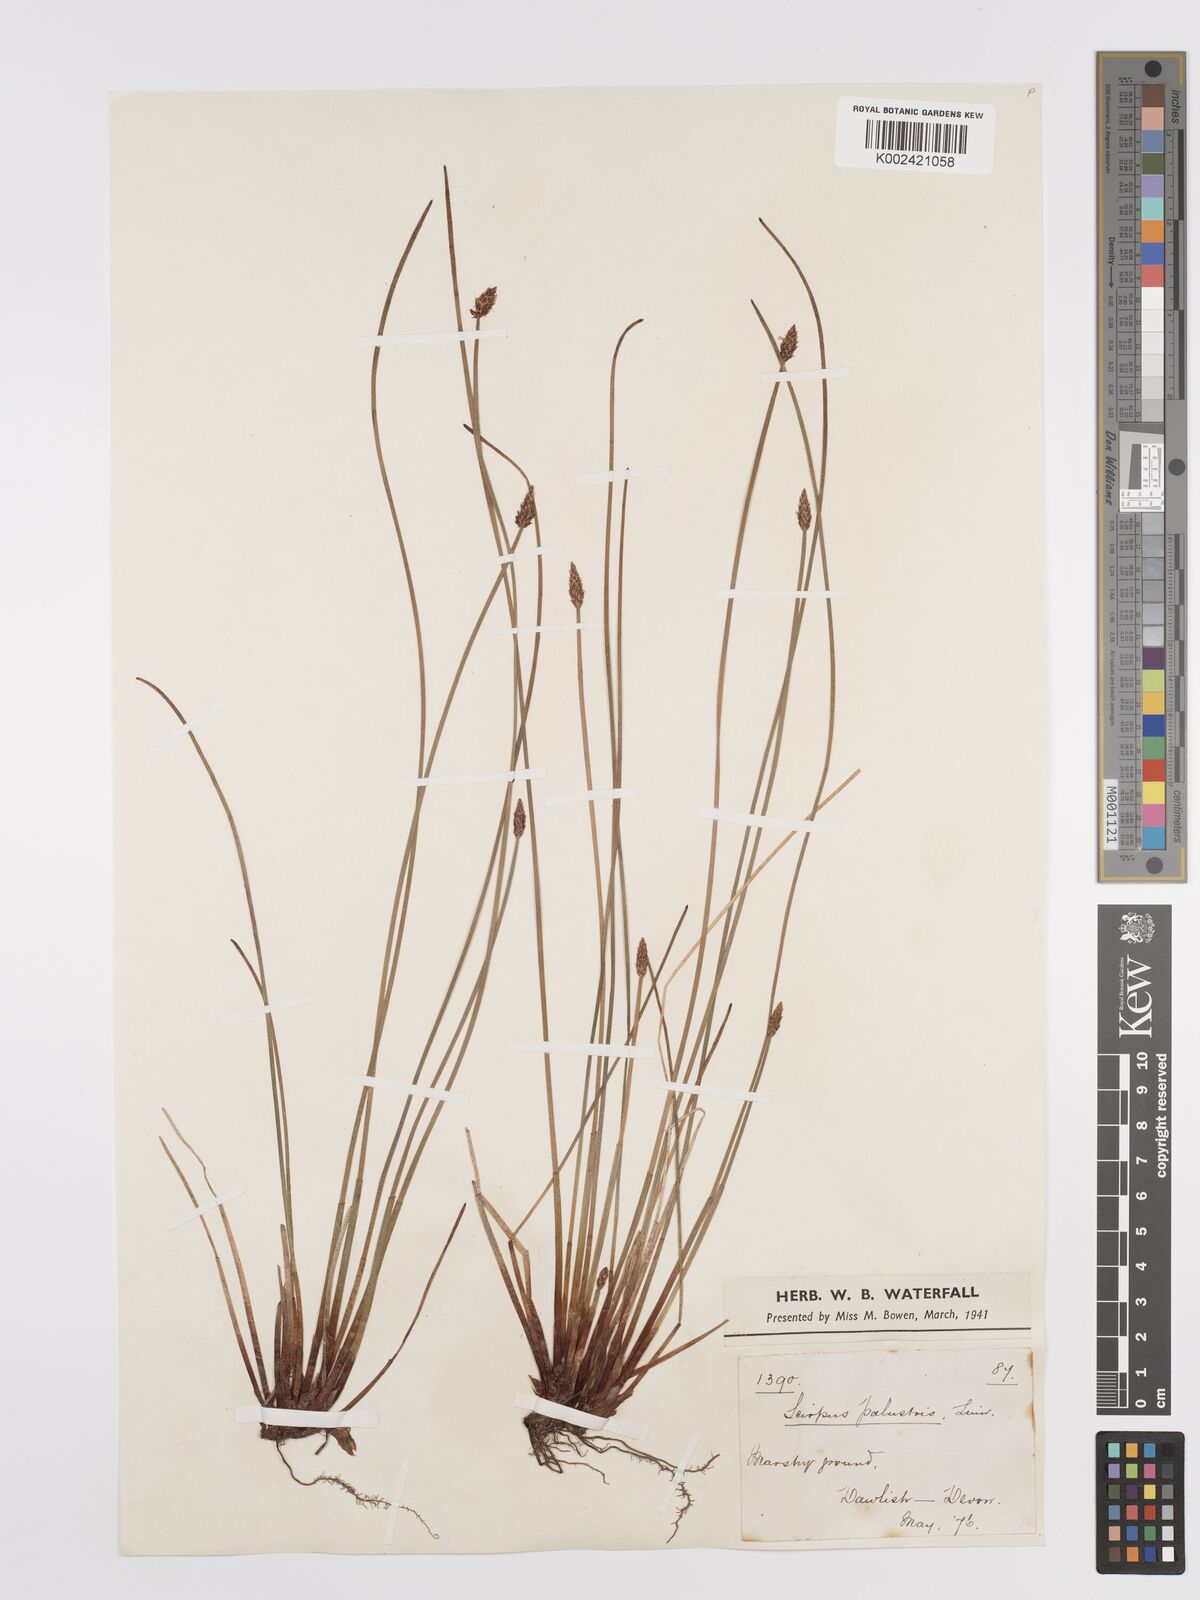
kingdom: Plantae
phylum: Tracheophyta
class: Liliopsida
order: Poales
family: Cyperaceae
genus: Eleocharis
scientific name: Eleocharis palustris
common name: Common spike-rush
